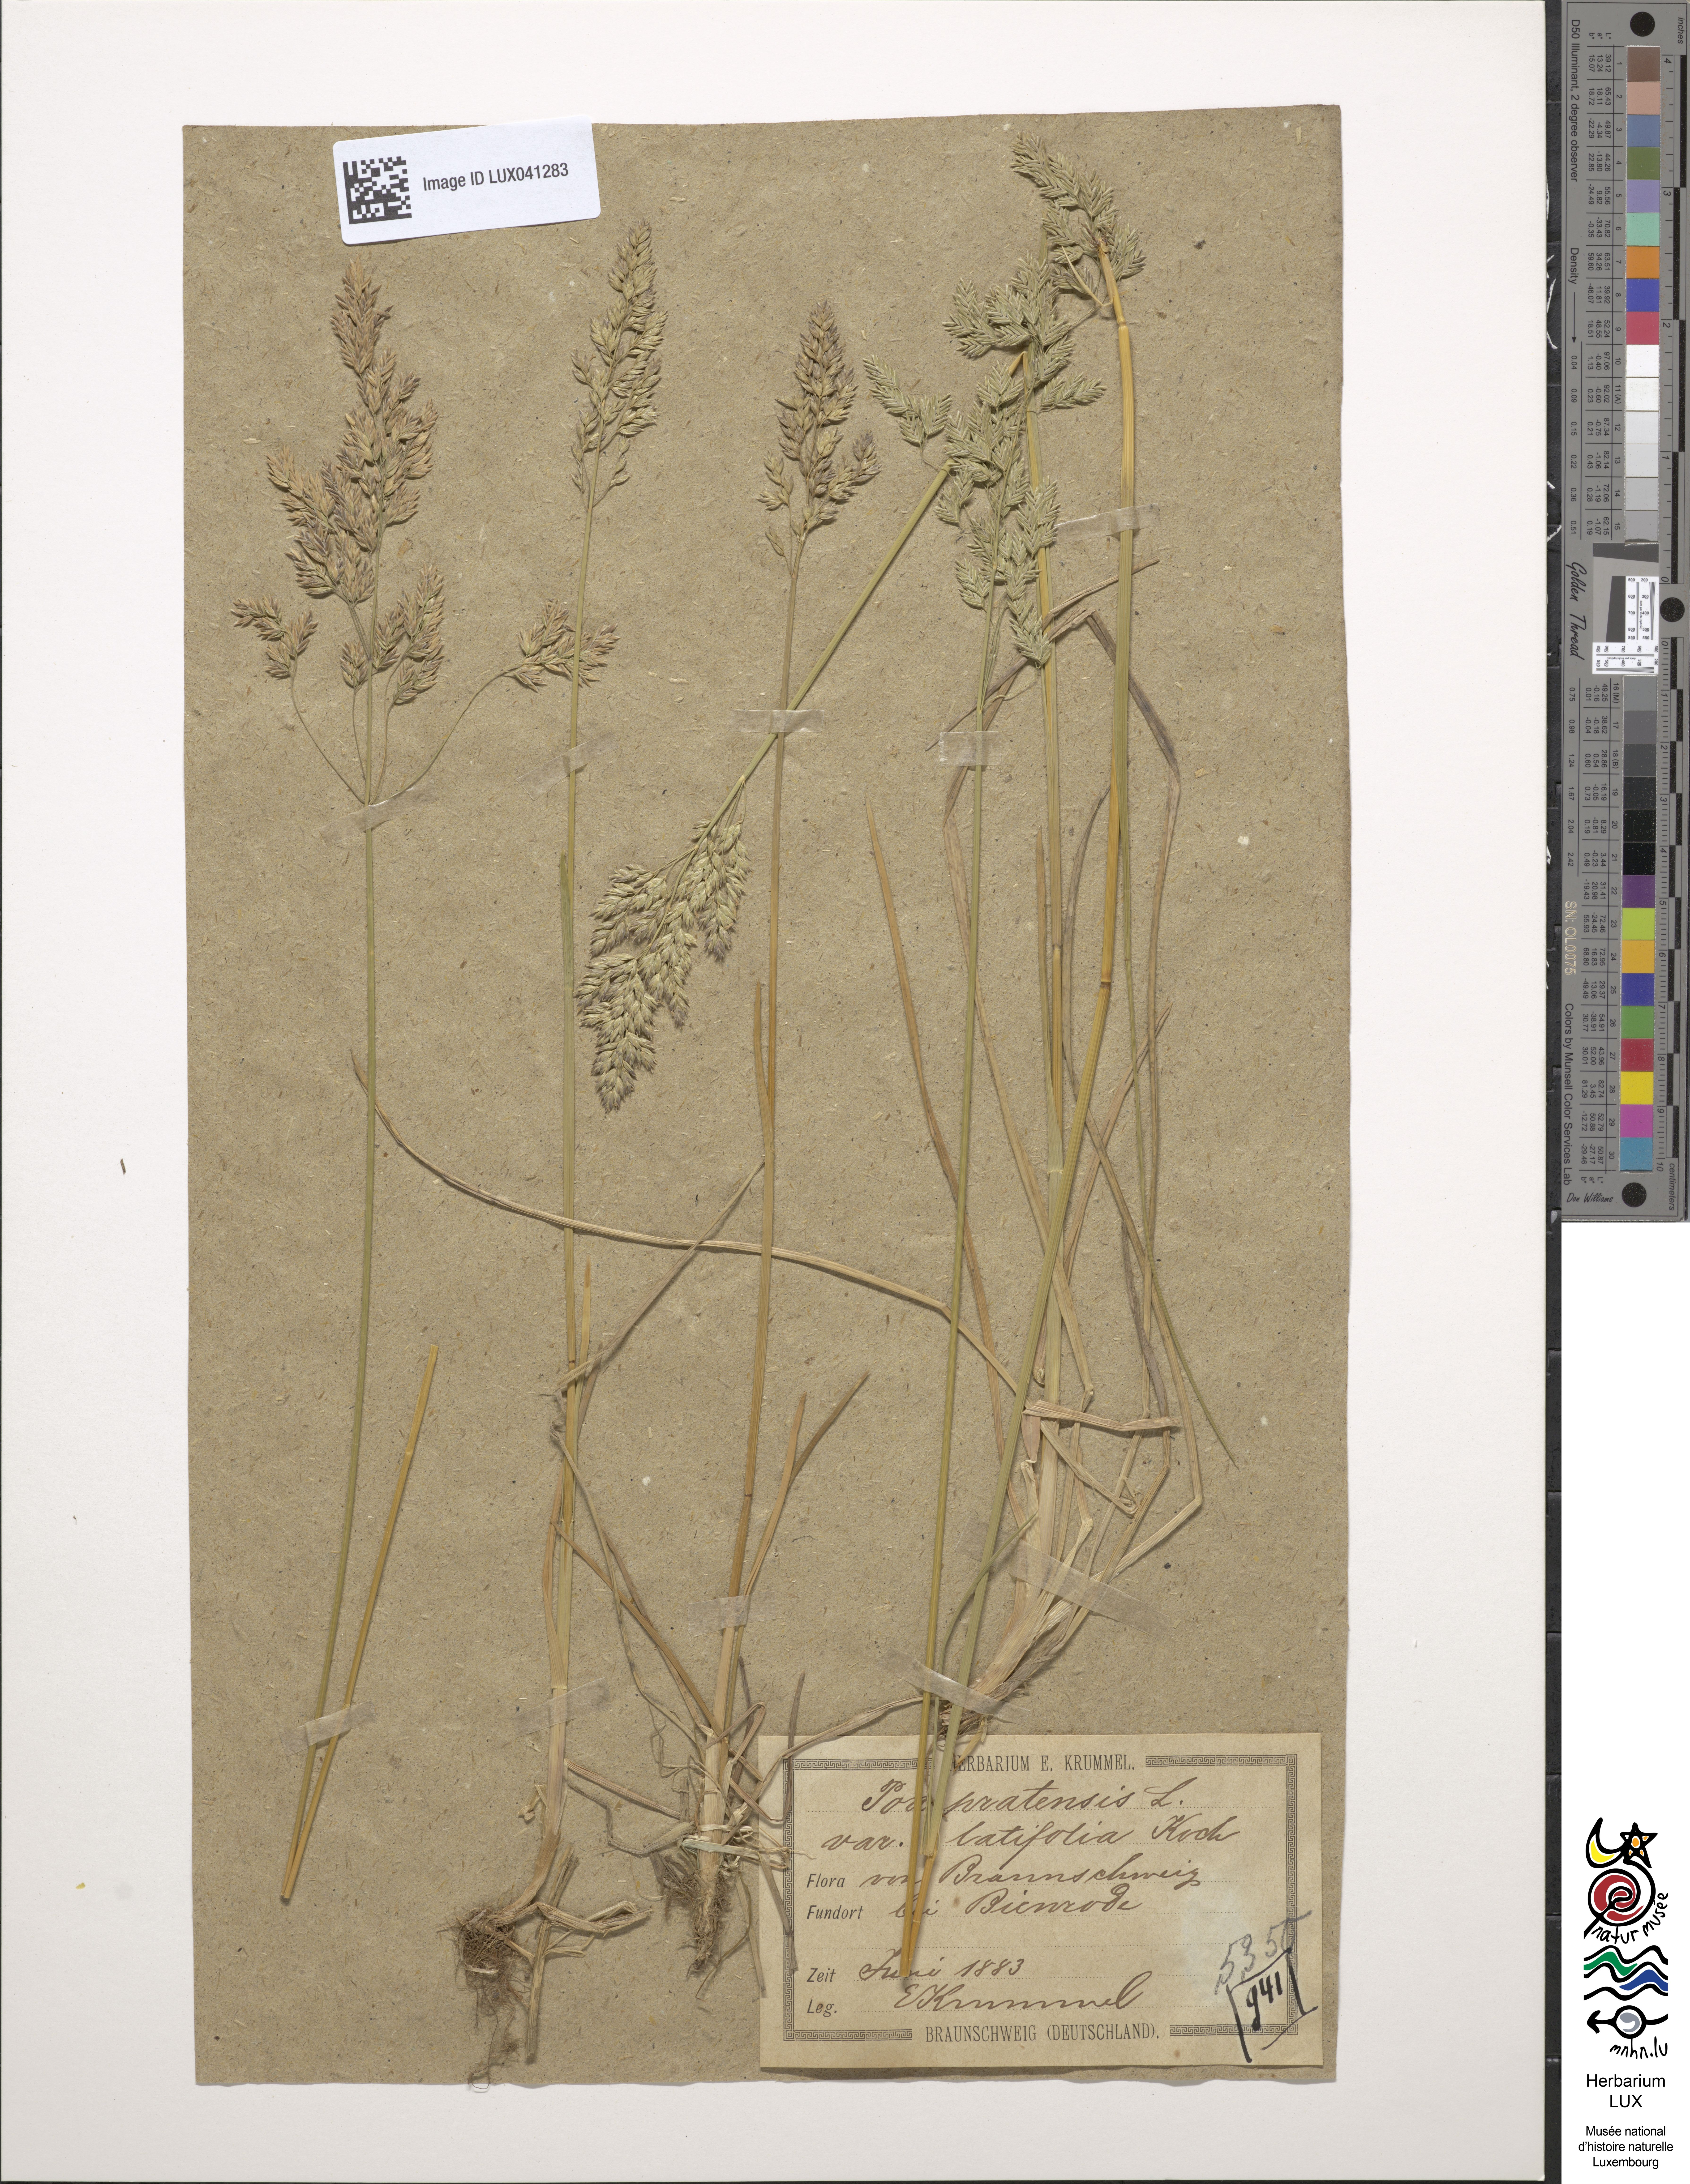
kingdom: Plantae
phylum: Tracheophyta
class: Liliopsida
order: Poales
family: Poaceae
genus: Poa
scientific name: Poa humilis
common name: Spreading meadow-grass
